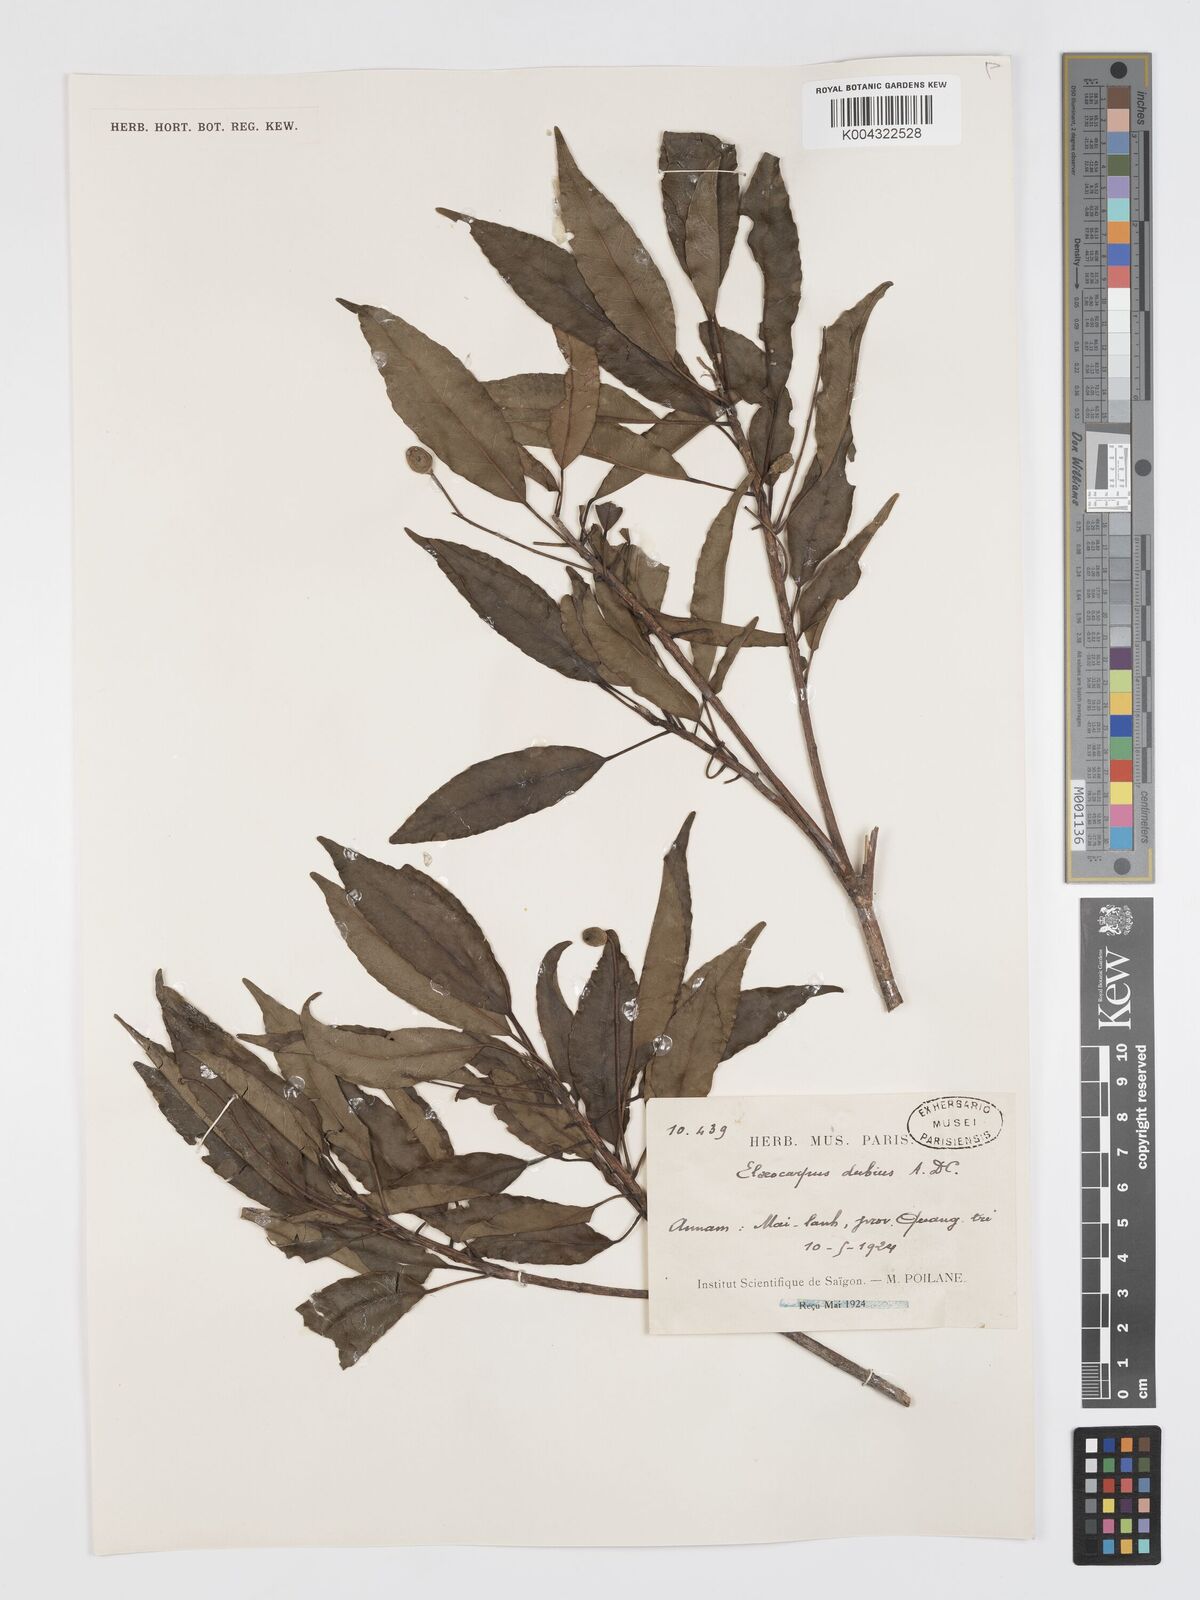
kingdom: Plantae
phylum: Tracheophyta
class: Magnoliopsida
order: Oxalidales
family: Elaeocarpaceae
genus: Elaeocarpus
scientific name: Elaeocarpus dubius
